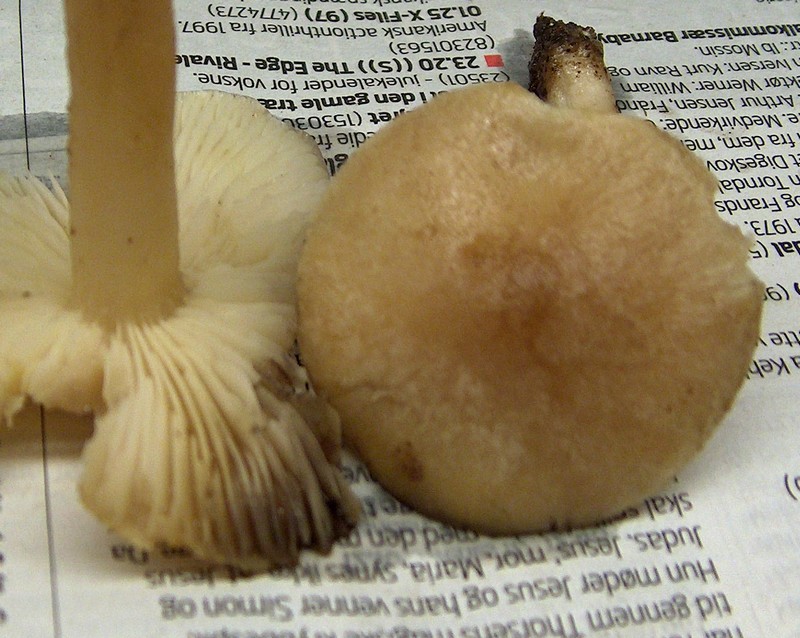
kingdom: Fungi
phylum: Basidiomycota
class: Agaricomycetes
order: Agaricales
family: Tricholomataceae
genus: Tricholoma
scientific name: Tricholoma scalpturatum
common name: gulplettet ridderhat
